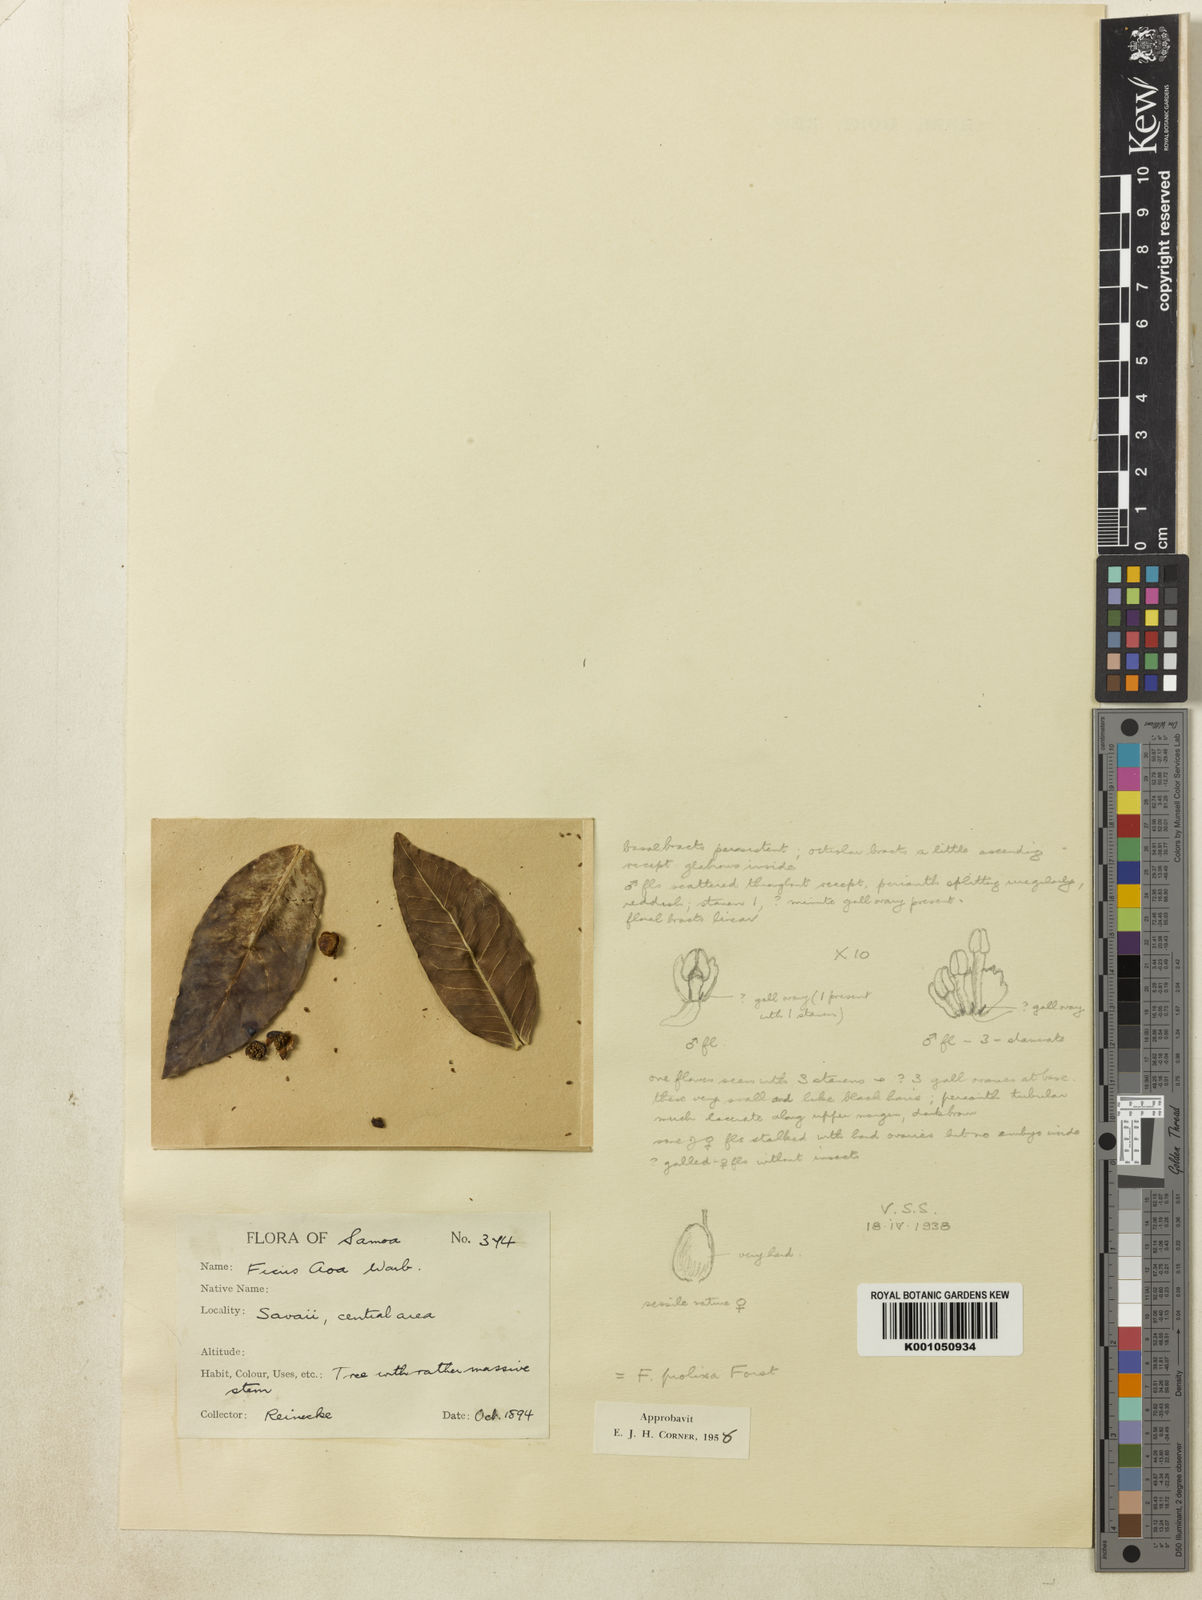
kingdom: Plantae
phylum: Tracheophyta
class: Magnoliopsida
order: Rosales
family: Moraceae
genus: Ficus
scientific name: Ficus prolixa
